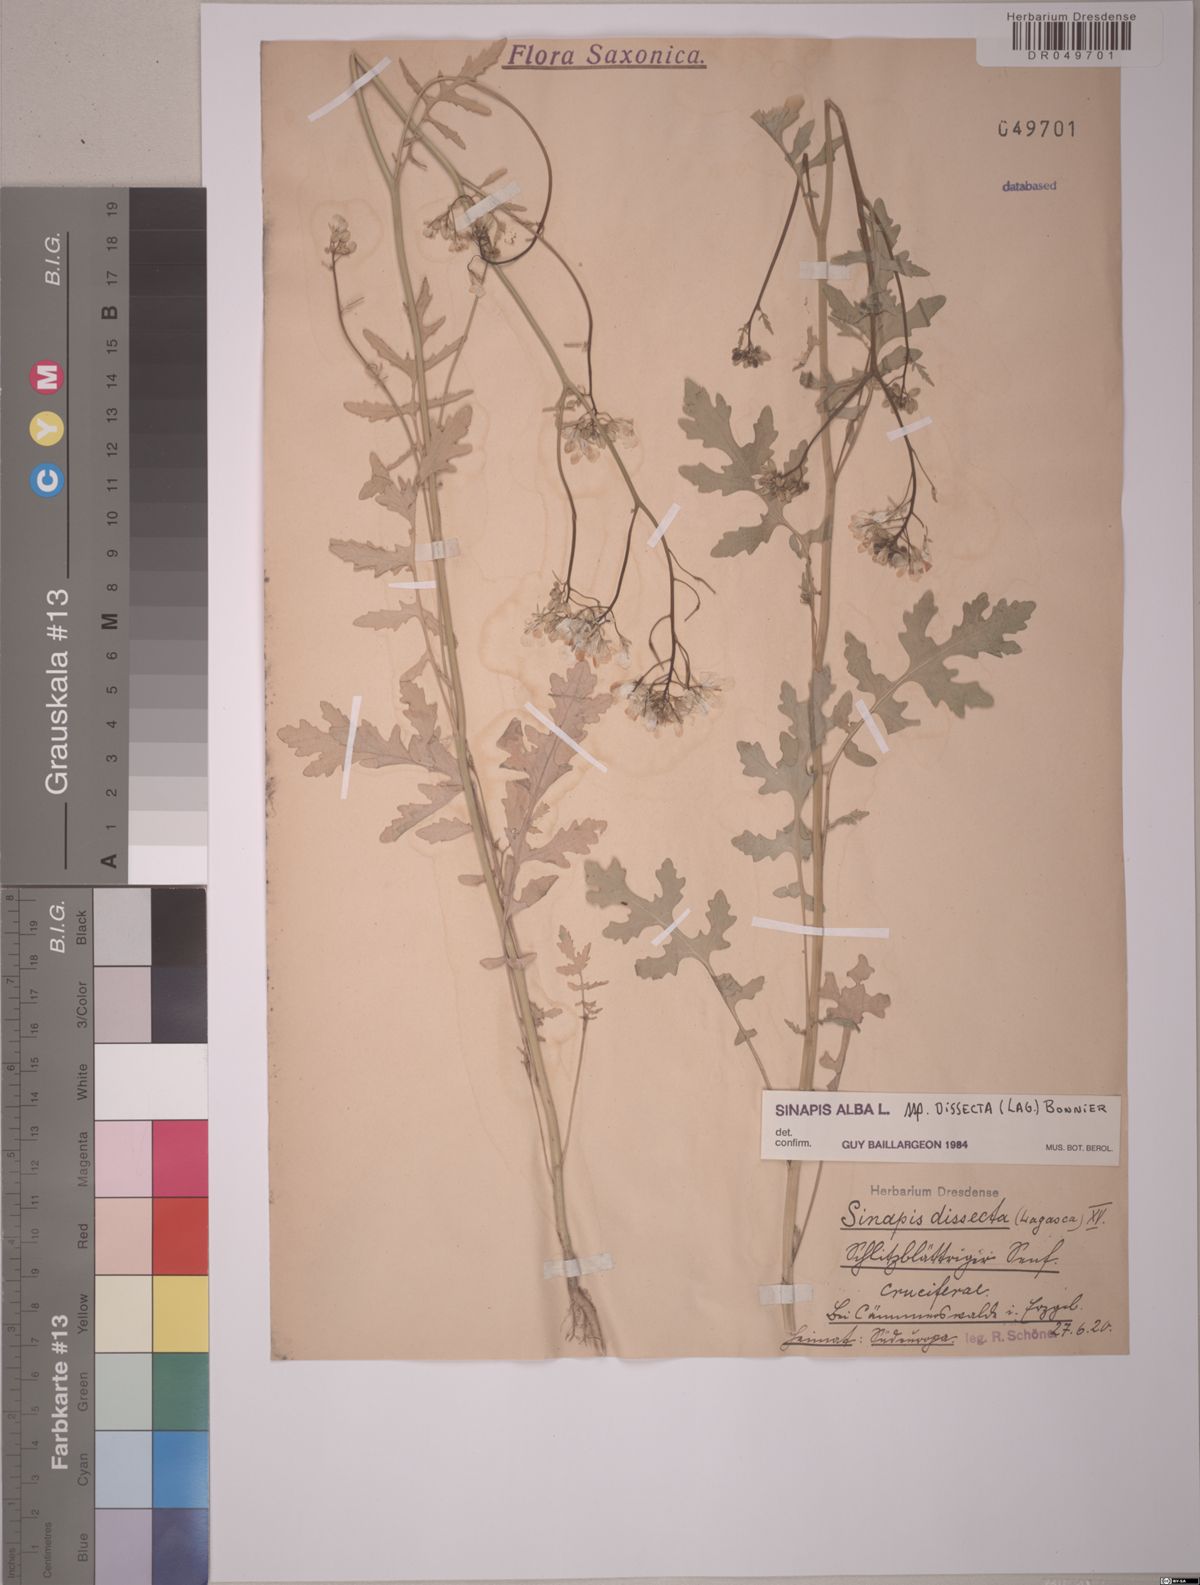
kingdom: Plantae
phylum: Tracheophyta
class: Magnoliopsida
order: Brassicales
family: Brassicaceae
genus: Sinapis
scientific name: Sinapis alba
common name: White mustard
